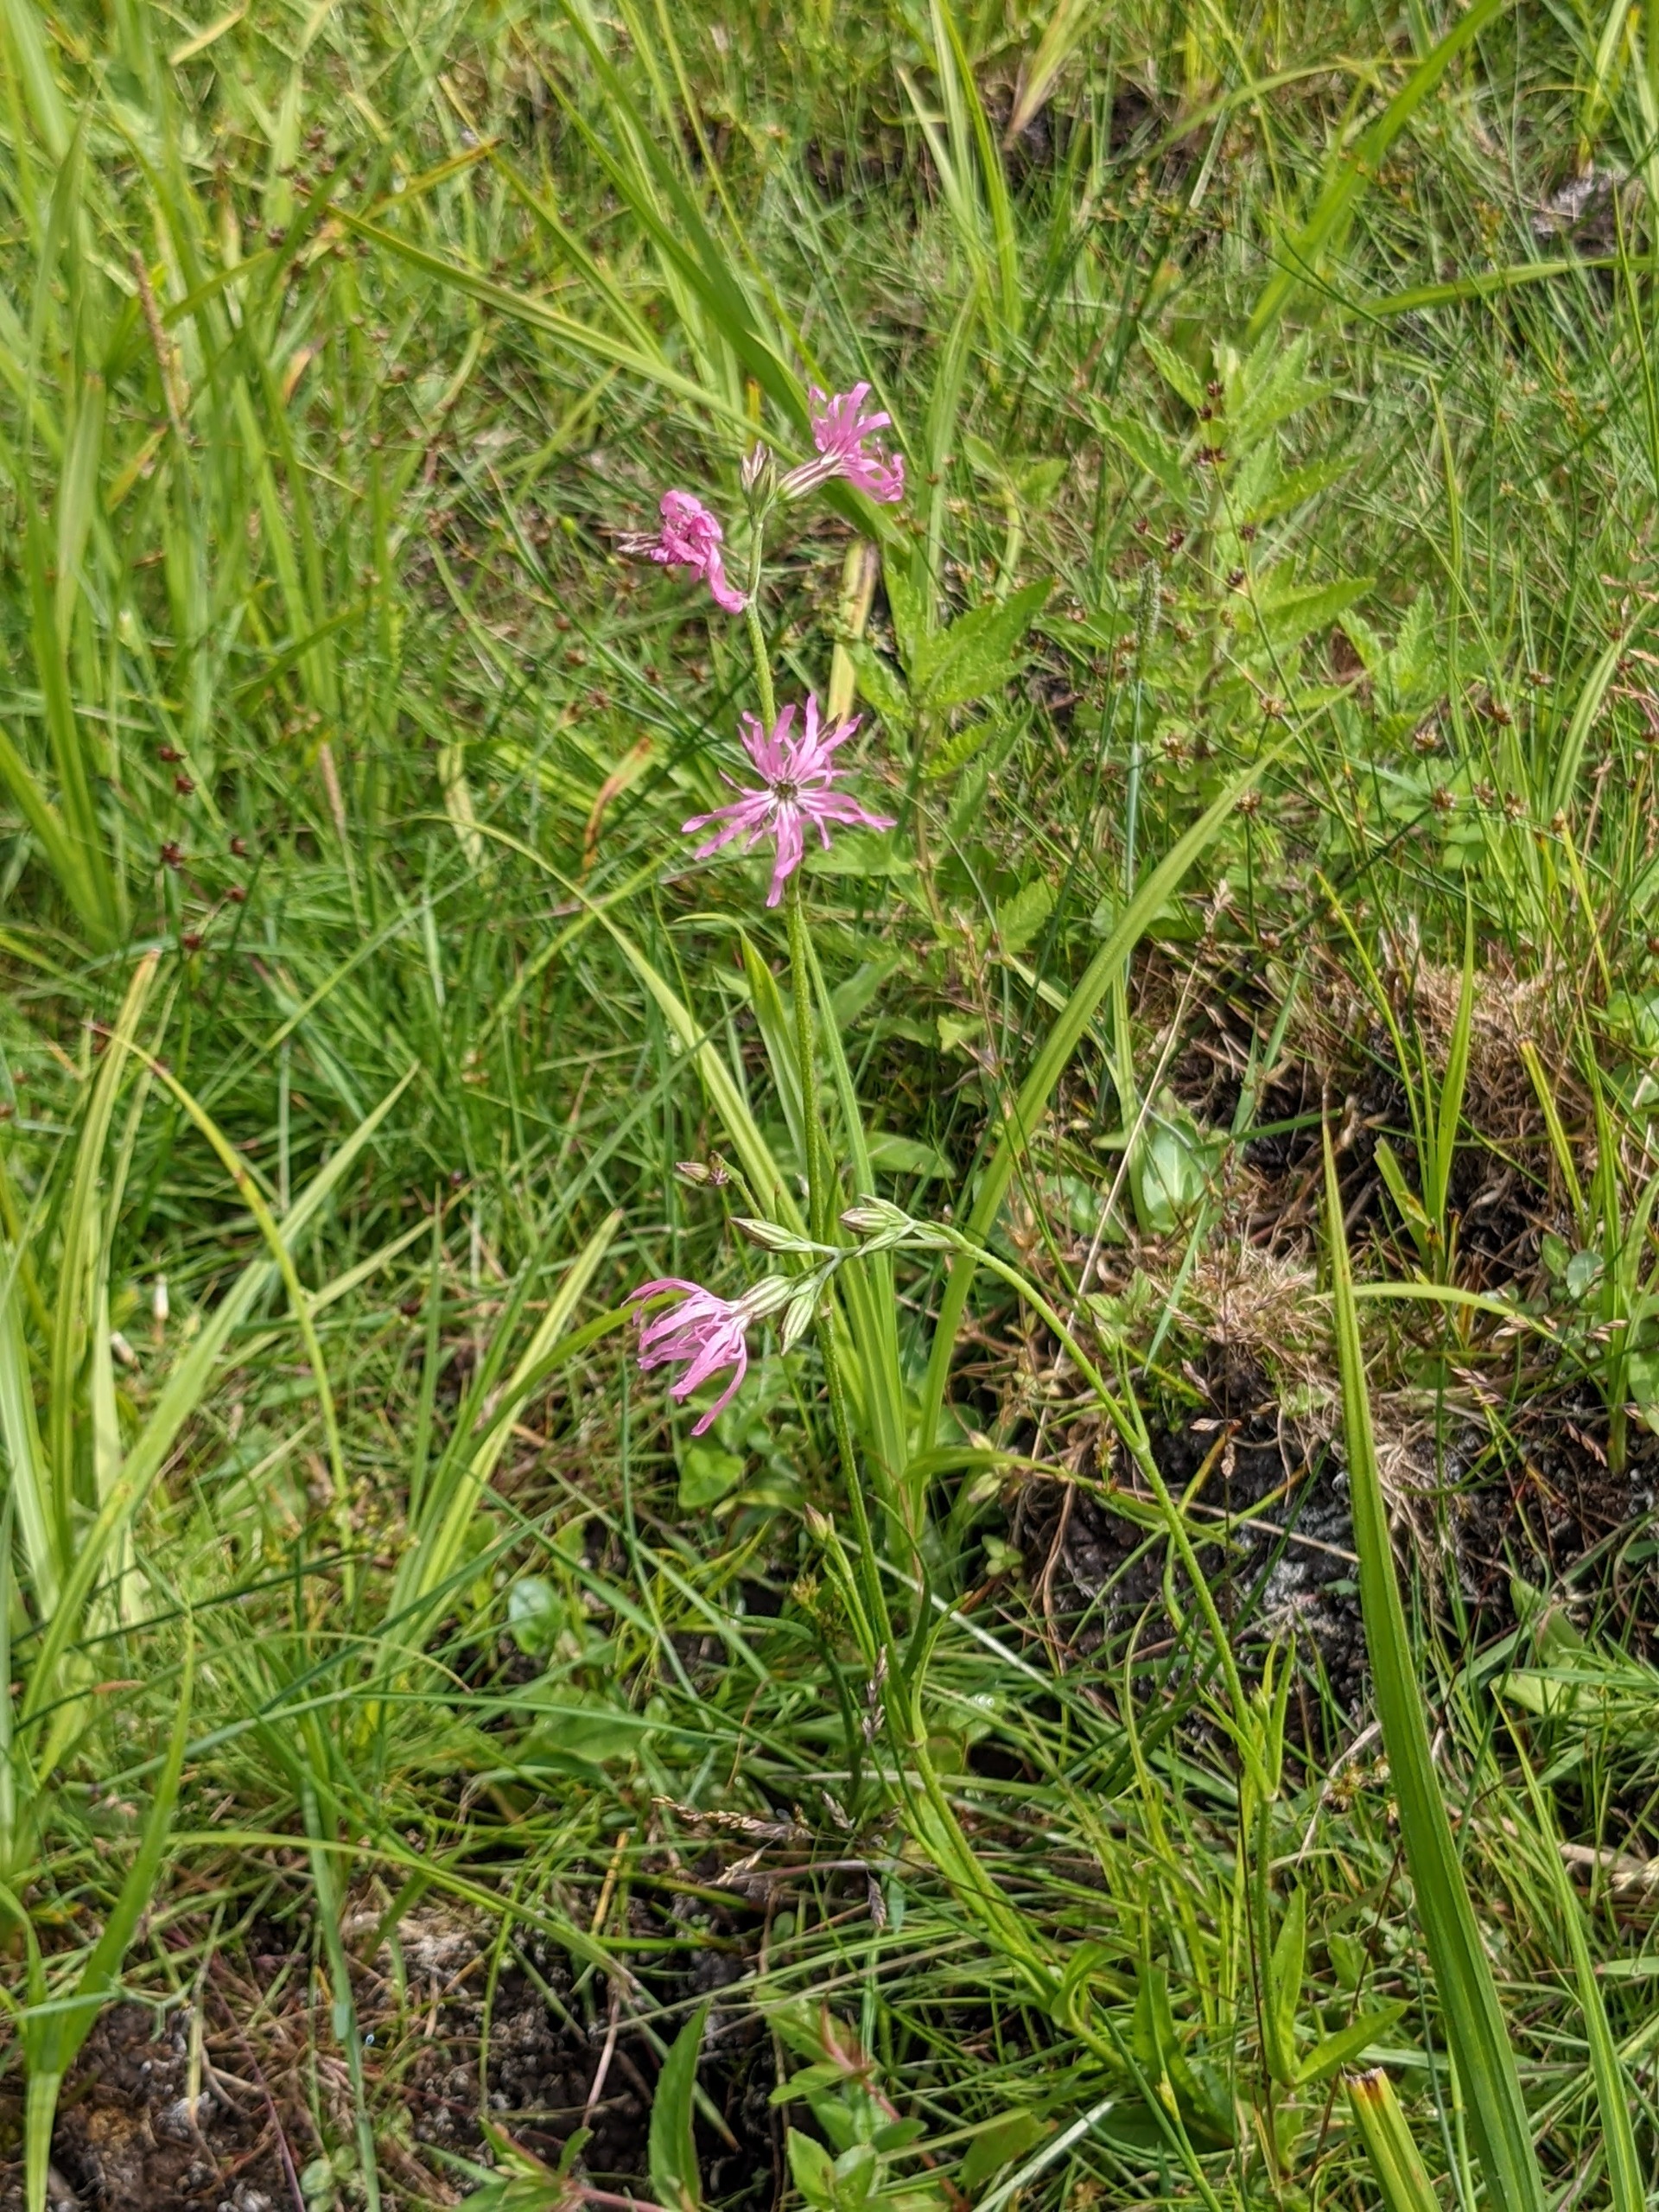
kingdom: Plantae
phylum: Tracheophyta
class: Magnoliopsida
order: Caryophyllales
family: Caryophyllaceae
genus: Silene
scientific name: Silene flos-cuculi
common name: Trævlekrone
